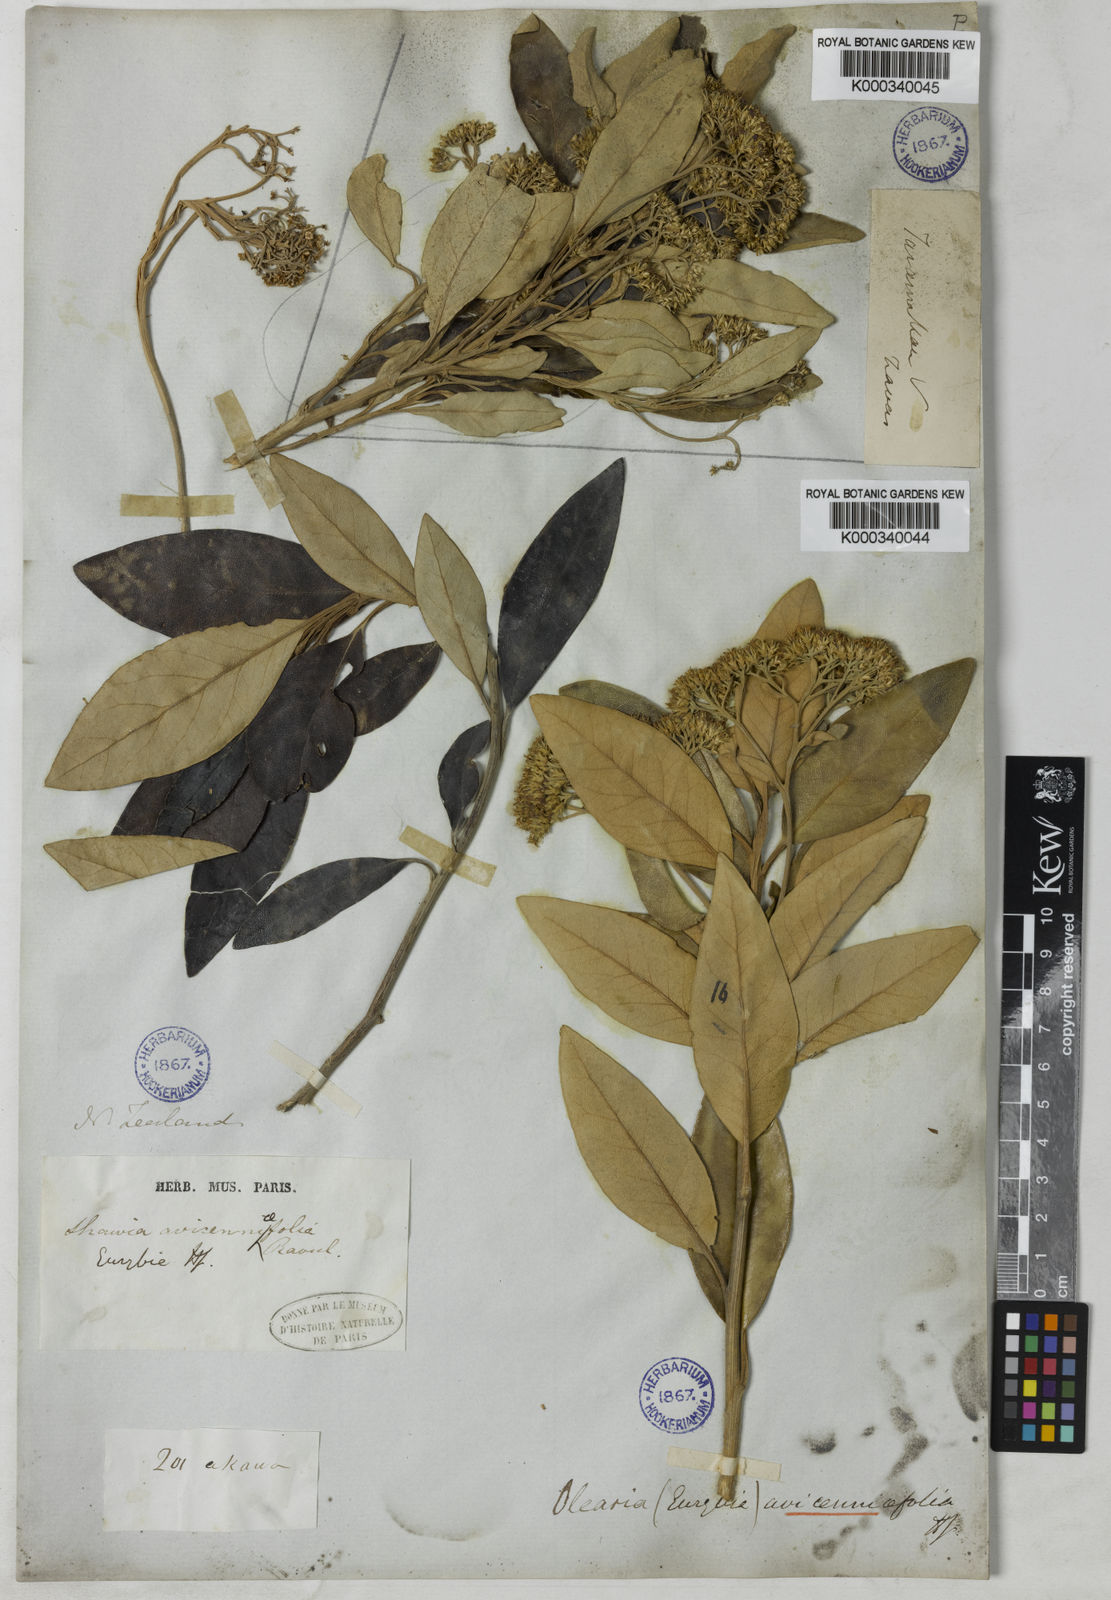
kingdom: Plantae
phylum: Tracheophyta
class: Magnoliopsida
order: Asterales
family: Asteraceae
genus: Olearia
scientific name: Olearia
